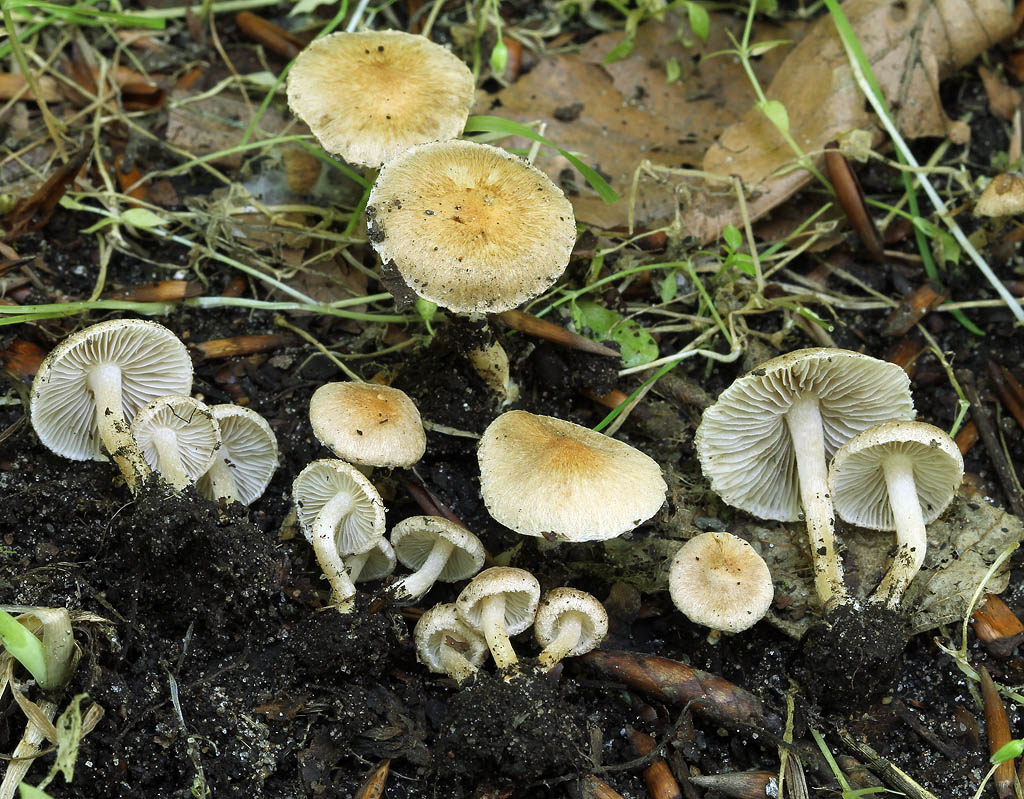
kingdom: Fungi
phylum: Basidiomycota
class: Agaricomycetes
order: Agaricales
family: Inocybaceae
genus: Inocybe
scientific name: Inocybe sindonia
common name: bleg trævlhat
